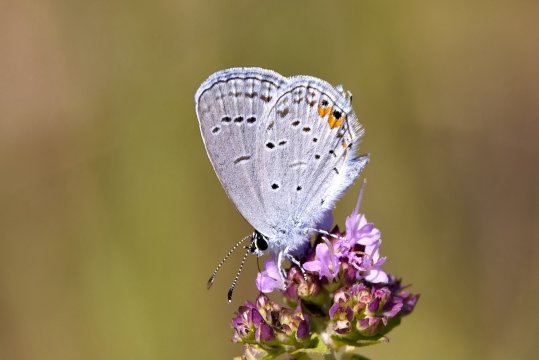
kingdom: Animalia
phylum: Arthropoda
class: Insecta
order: Lepidoptera
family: Lycaenidae
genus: Elkalyce
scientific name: Elkalyce comyntas
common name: Eastern Tailed-Blue
